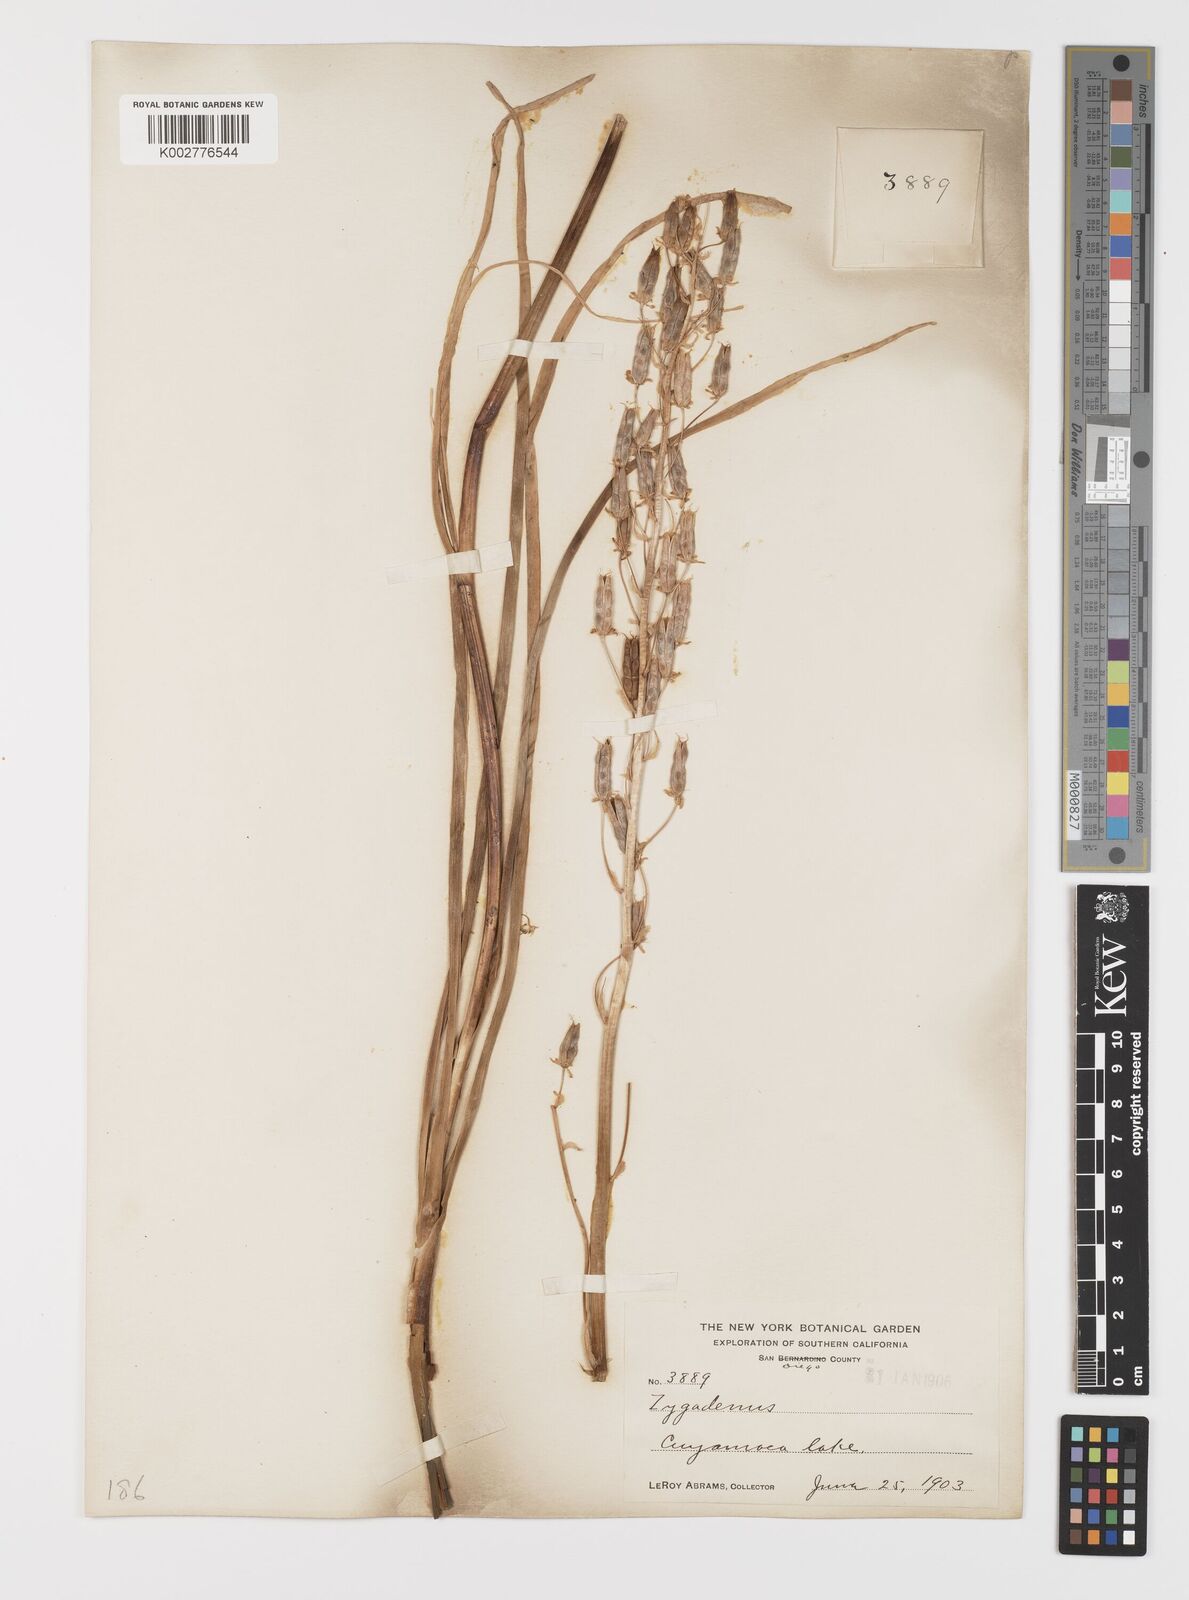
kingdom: Plantae
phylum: Tracheophyta
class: Liliopsida
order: Liliales
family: Melanthiaceae
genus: Toxicoscordion
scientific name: Toxicoscordion fremontii
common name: Fremont's death camas
